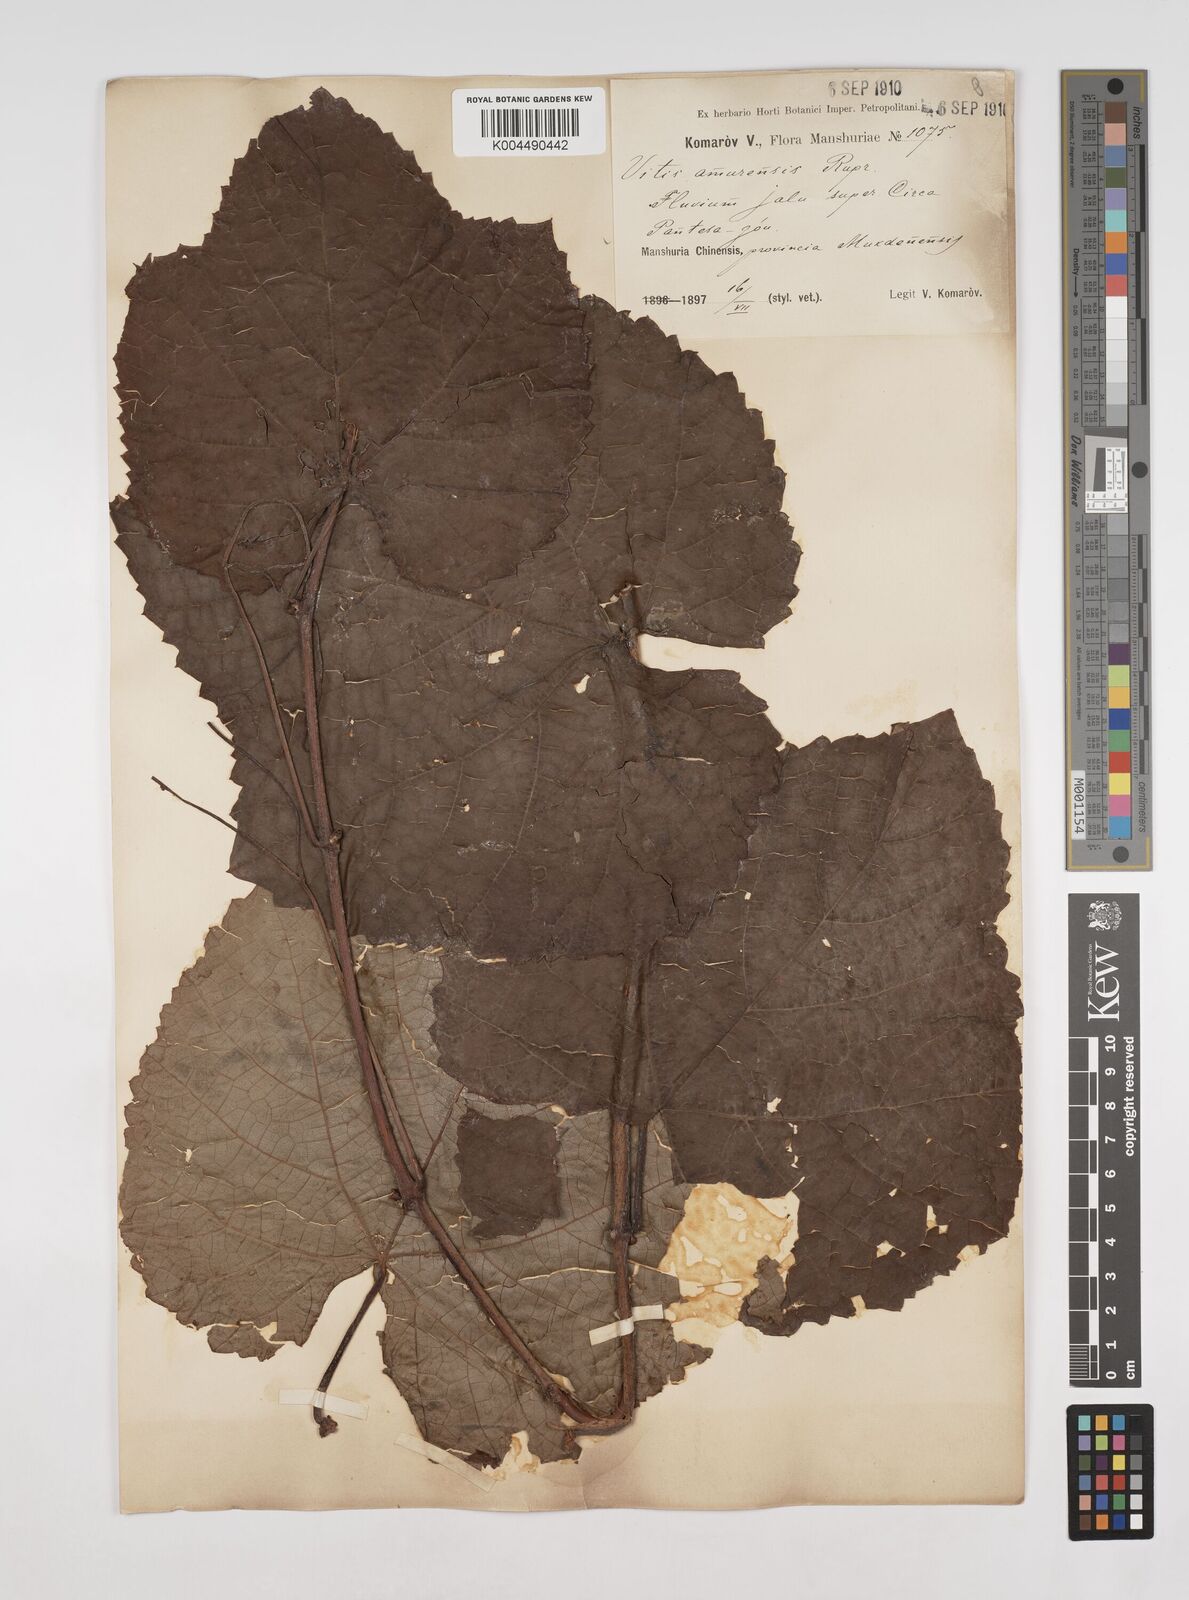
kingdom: Plantae
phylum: Tracheophyta
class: Magnoliopsida
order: Vitales
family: Vitaceae
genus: Vitis
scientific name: Vitis vinifera
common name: Grape-vine
